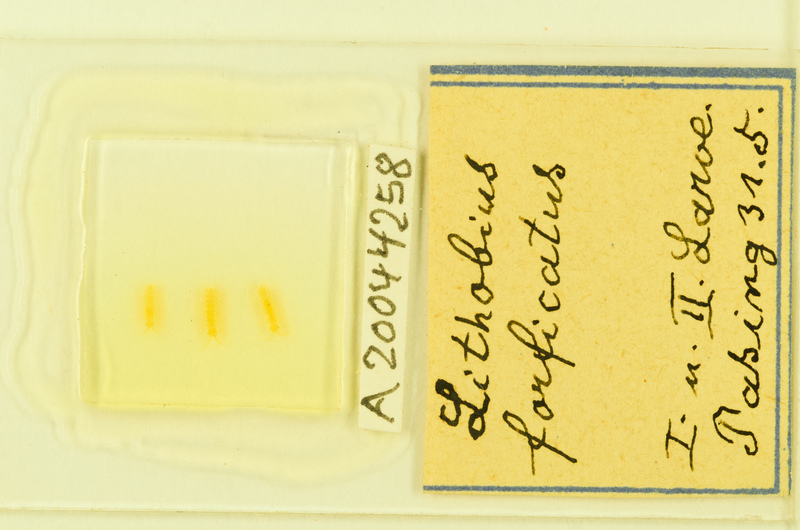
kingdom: Animalia
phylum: Arthropoda
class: Chilopoda
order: Lithobiomorpha
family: Lithobiidae
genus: Lithobius
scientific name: Lithobius forficatus
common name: Centipede
